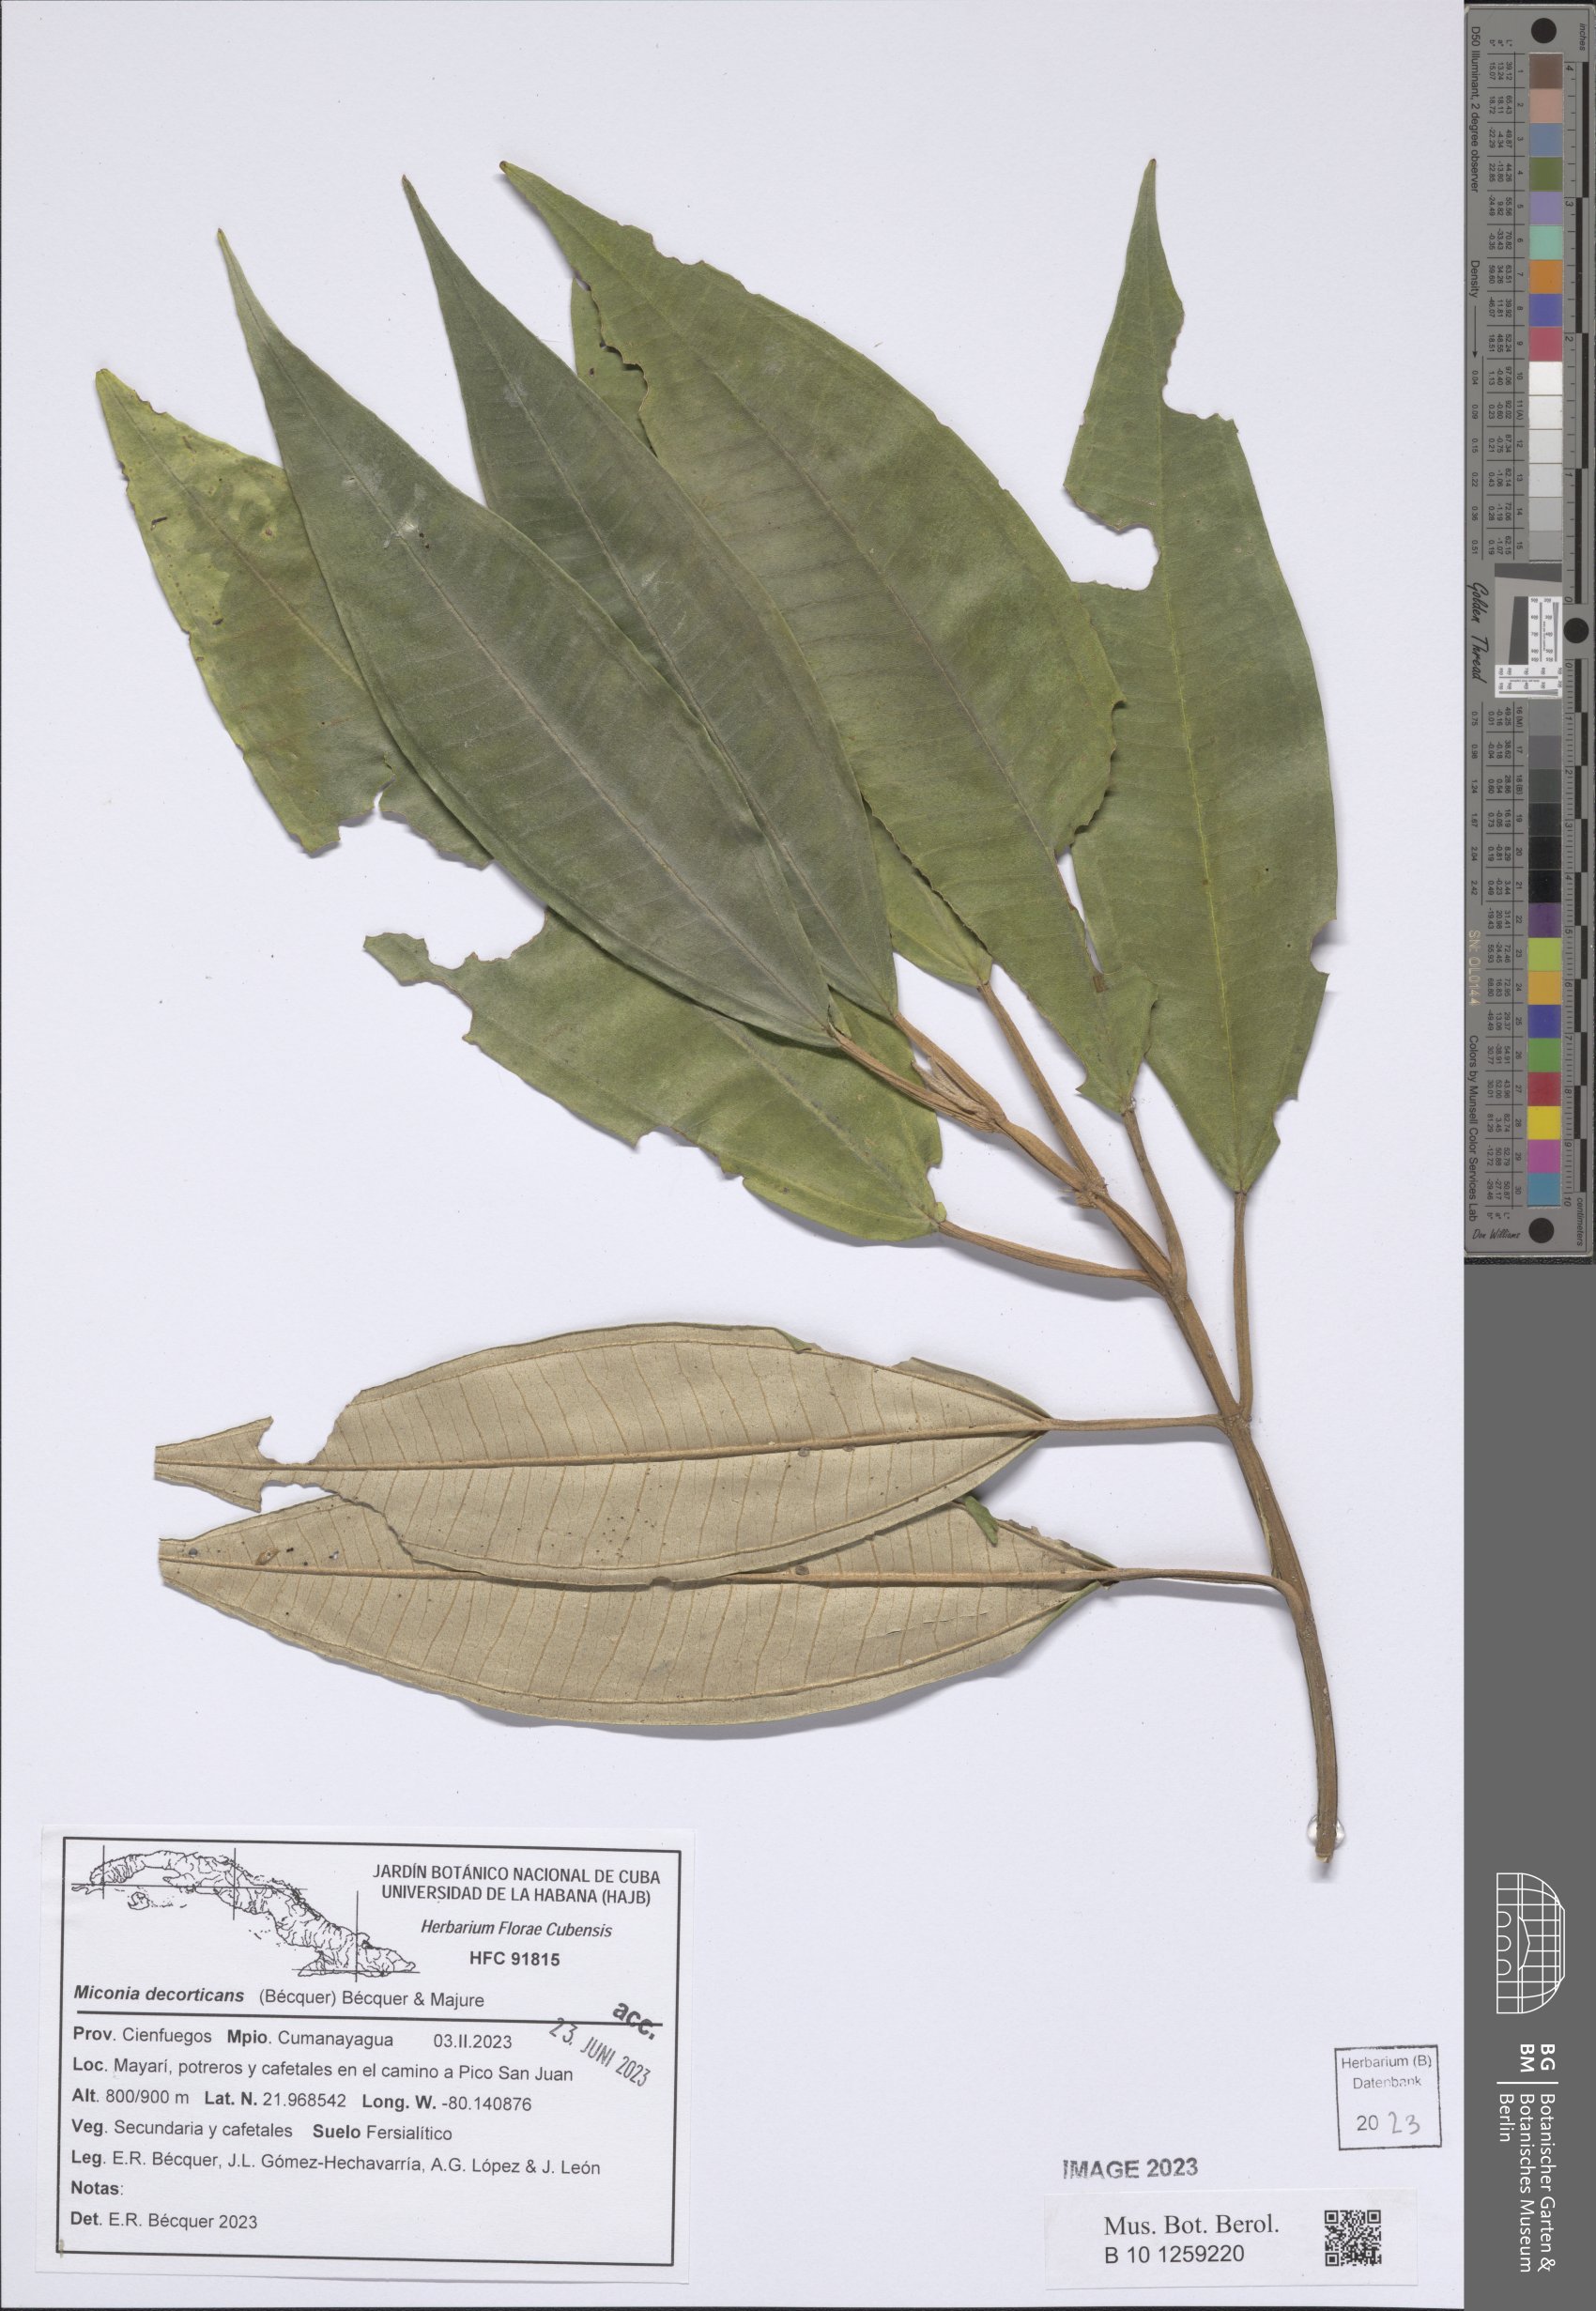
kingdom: Plantae
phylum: Tracheophyta
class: Magnoliopsida
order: Myrtales
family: Melastomataceae
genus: Miconia
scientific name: Miconia decorticans
